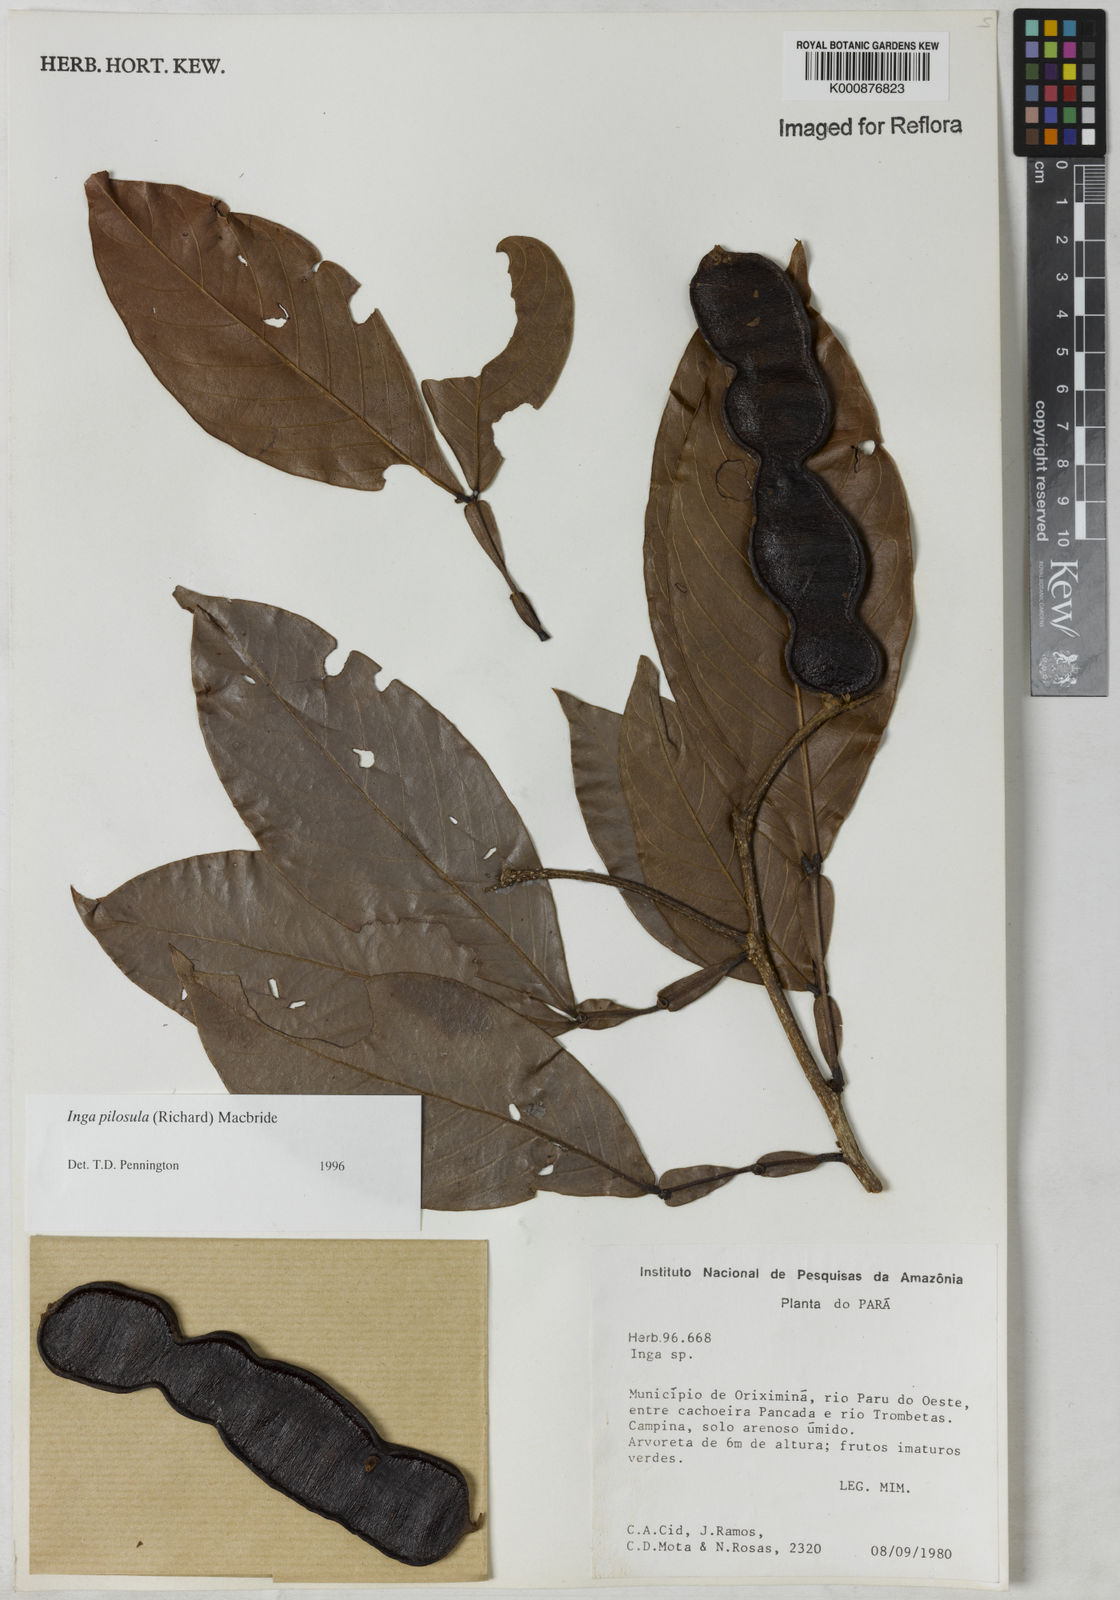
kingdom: Plantae
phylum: Tracheophyta
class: Magnoliopsida
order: Fabales
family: Fabaceae
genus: Inga
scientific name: Inga pilosula
